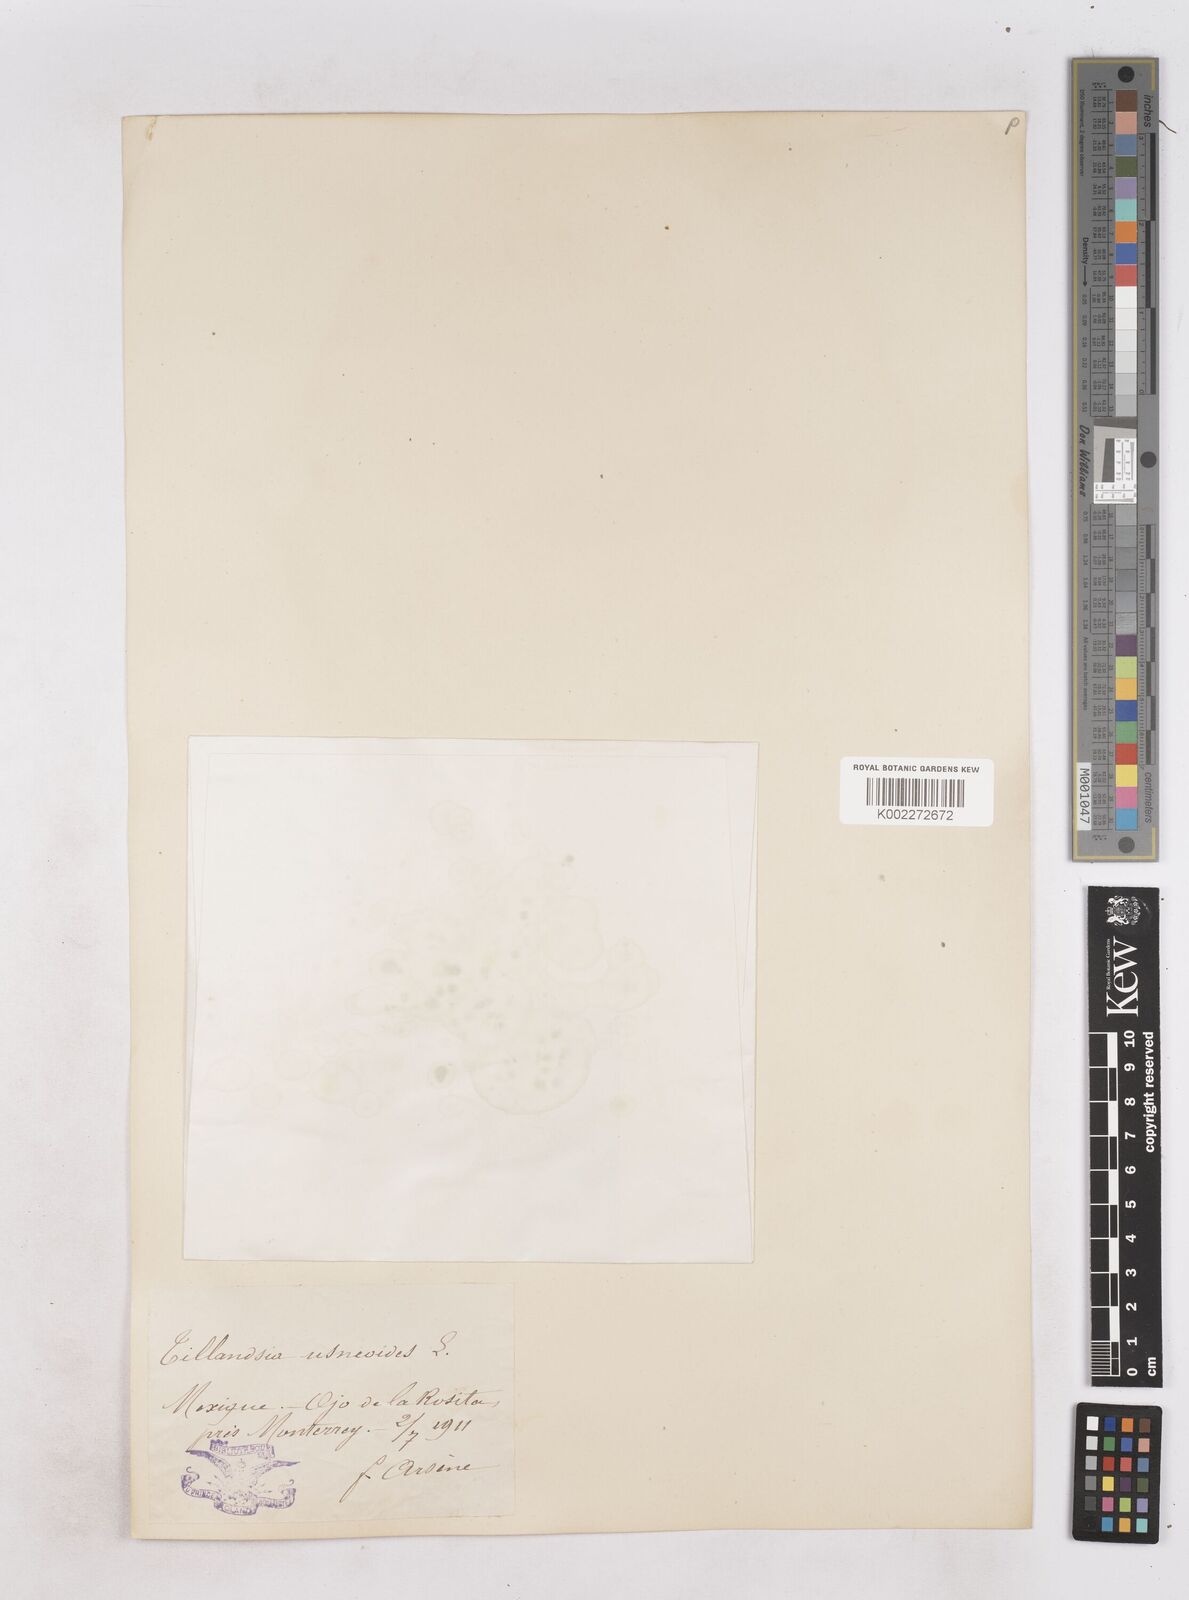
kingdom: Plantae
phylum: Tracheophyta
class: Liliopsida
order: Poales
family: Bromeliaceae
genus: Tillandsia
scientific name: Tillandsia usneoides
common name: Spanish moss
